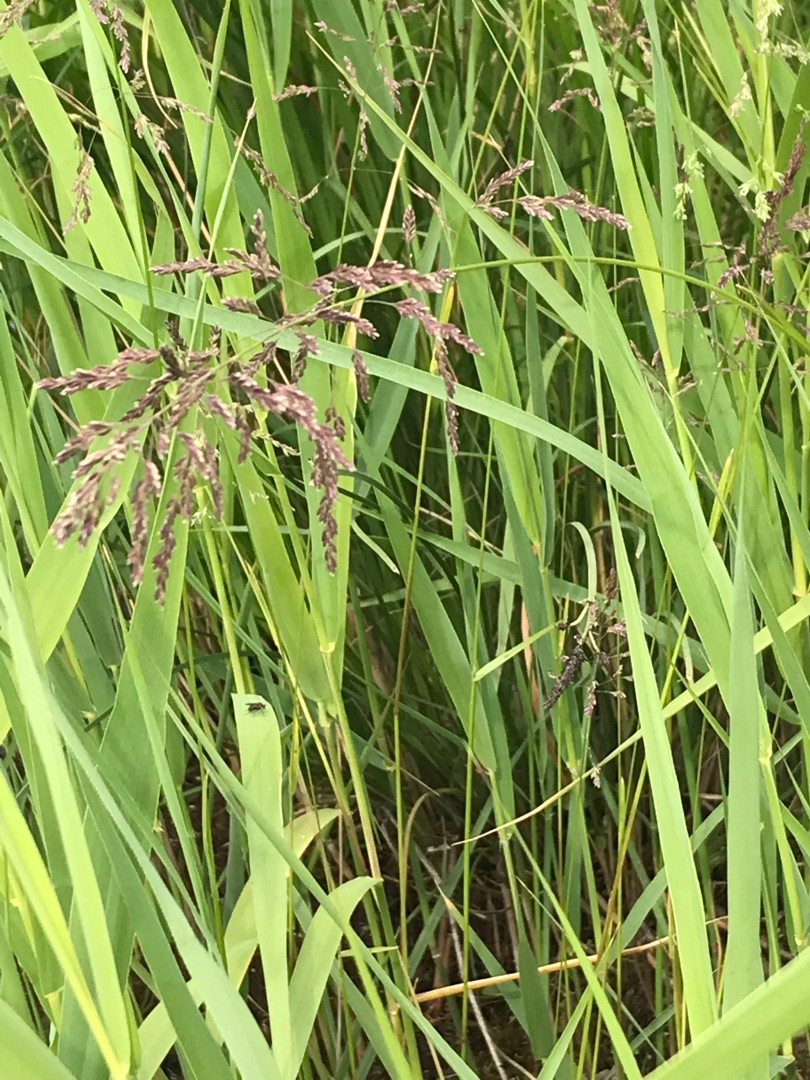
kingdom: Plantae
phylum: Tracheophyta
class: Liliopsida
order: Poales
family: Poaceae
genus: Phragmites
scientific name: Phragmites australis
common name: Tagrør
